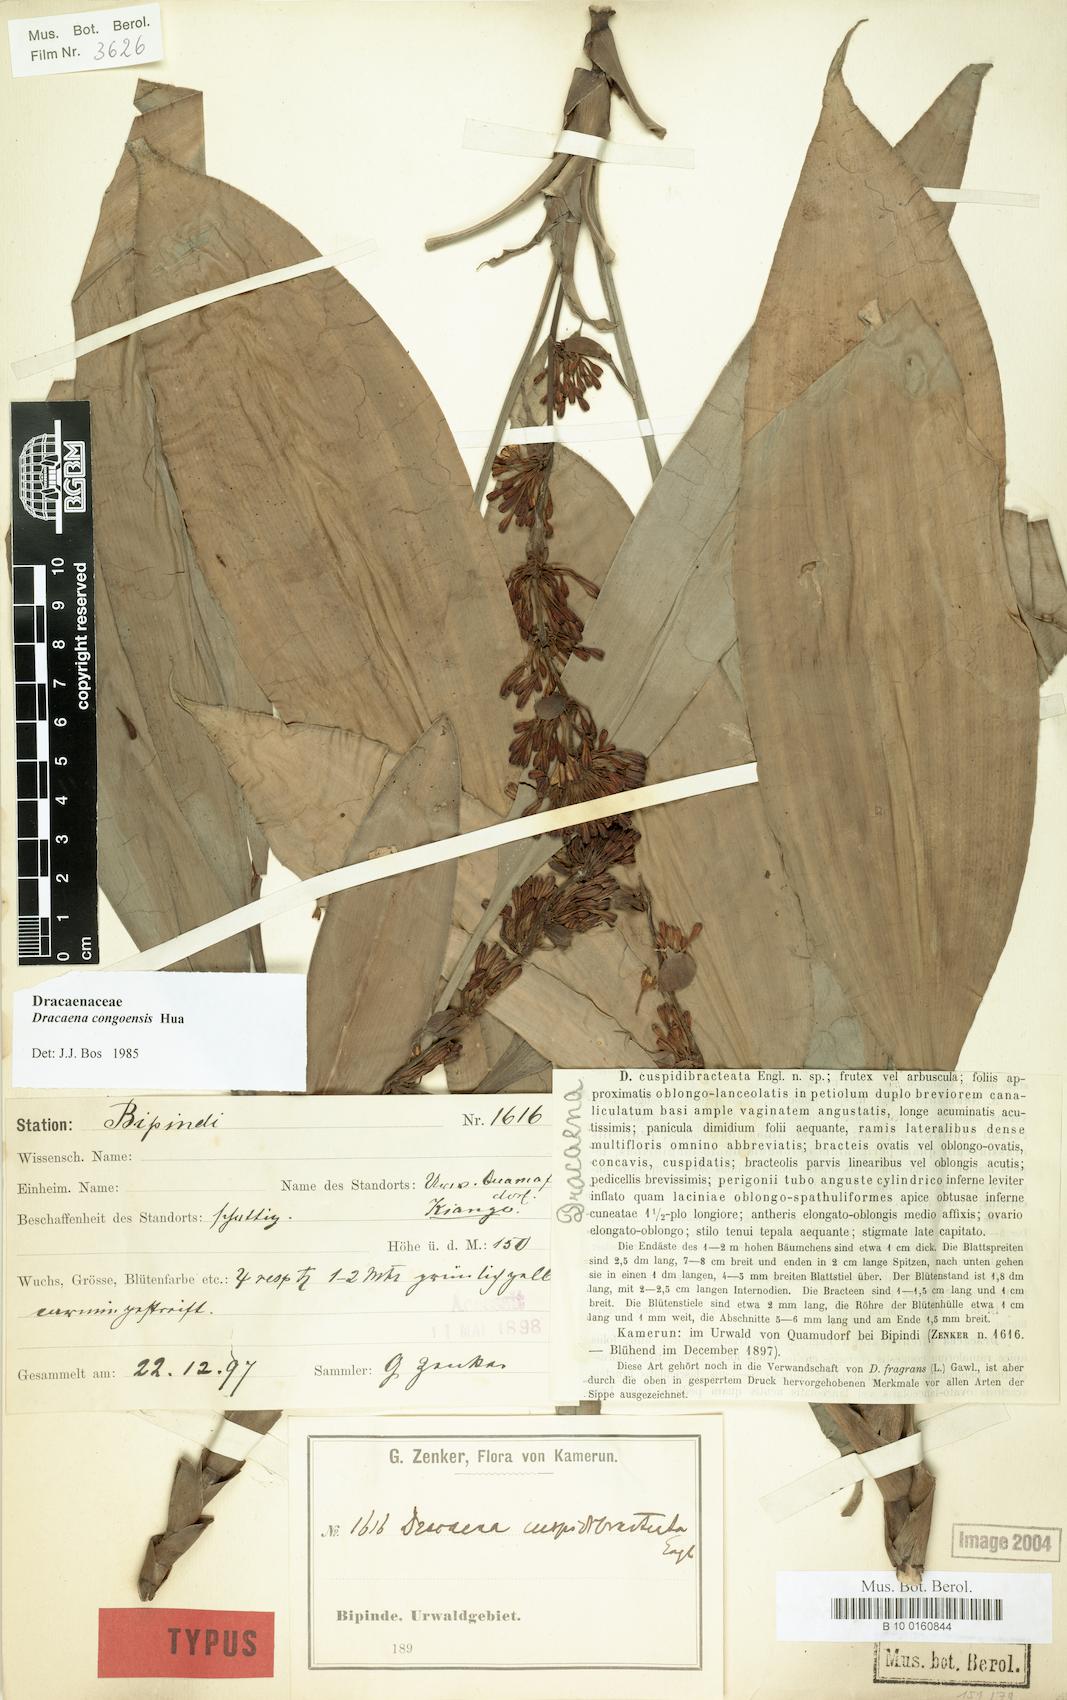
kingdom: Plantae
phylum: Tracheophyta
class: Liliopsida
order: Asparagales
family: Asparagaceae
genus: Dracaena
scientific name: Dracaena congoensis
